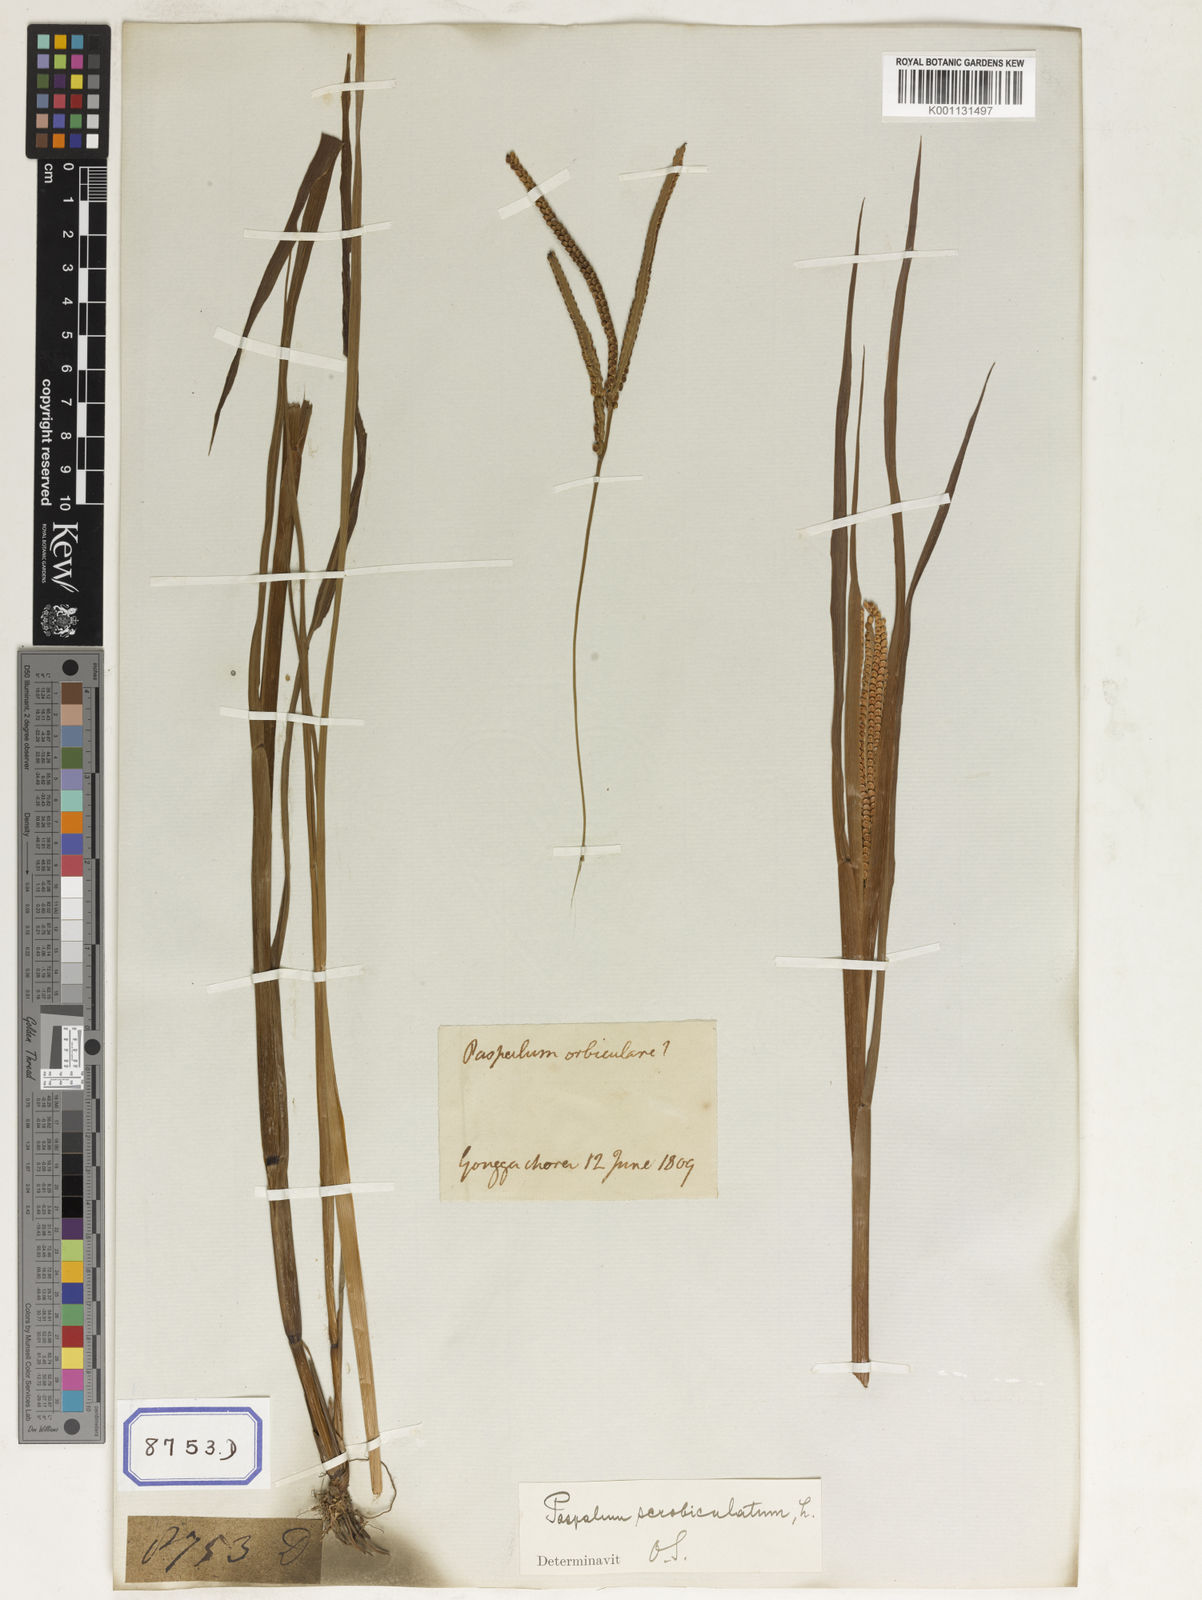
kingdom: Plantae
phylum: Tracheophyta
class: Liliopsida
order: Poales
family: Poaceae
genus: Paspalum
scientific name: Paspalum scrobiculatum
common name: Kodo millet
